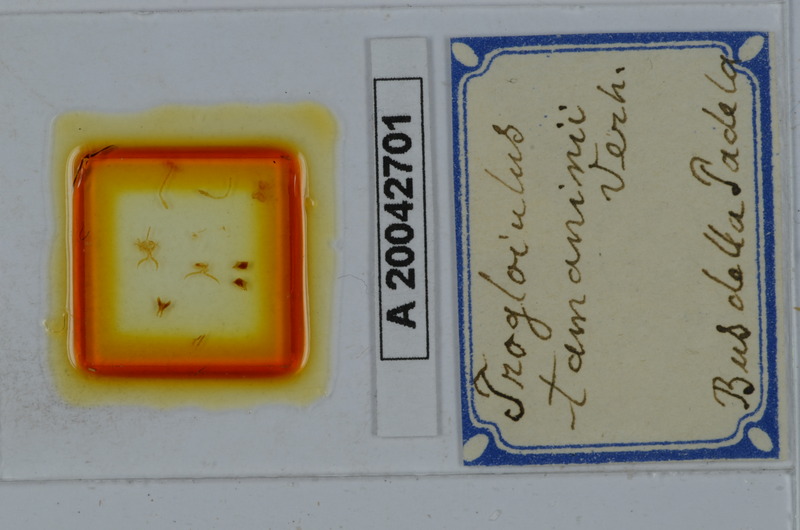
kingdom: Animalia
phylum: Arthropoda
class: Diplopoda
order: Julida
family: Julidae
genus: Trogloiulus
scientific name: Trogloiulus boldorii
